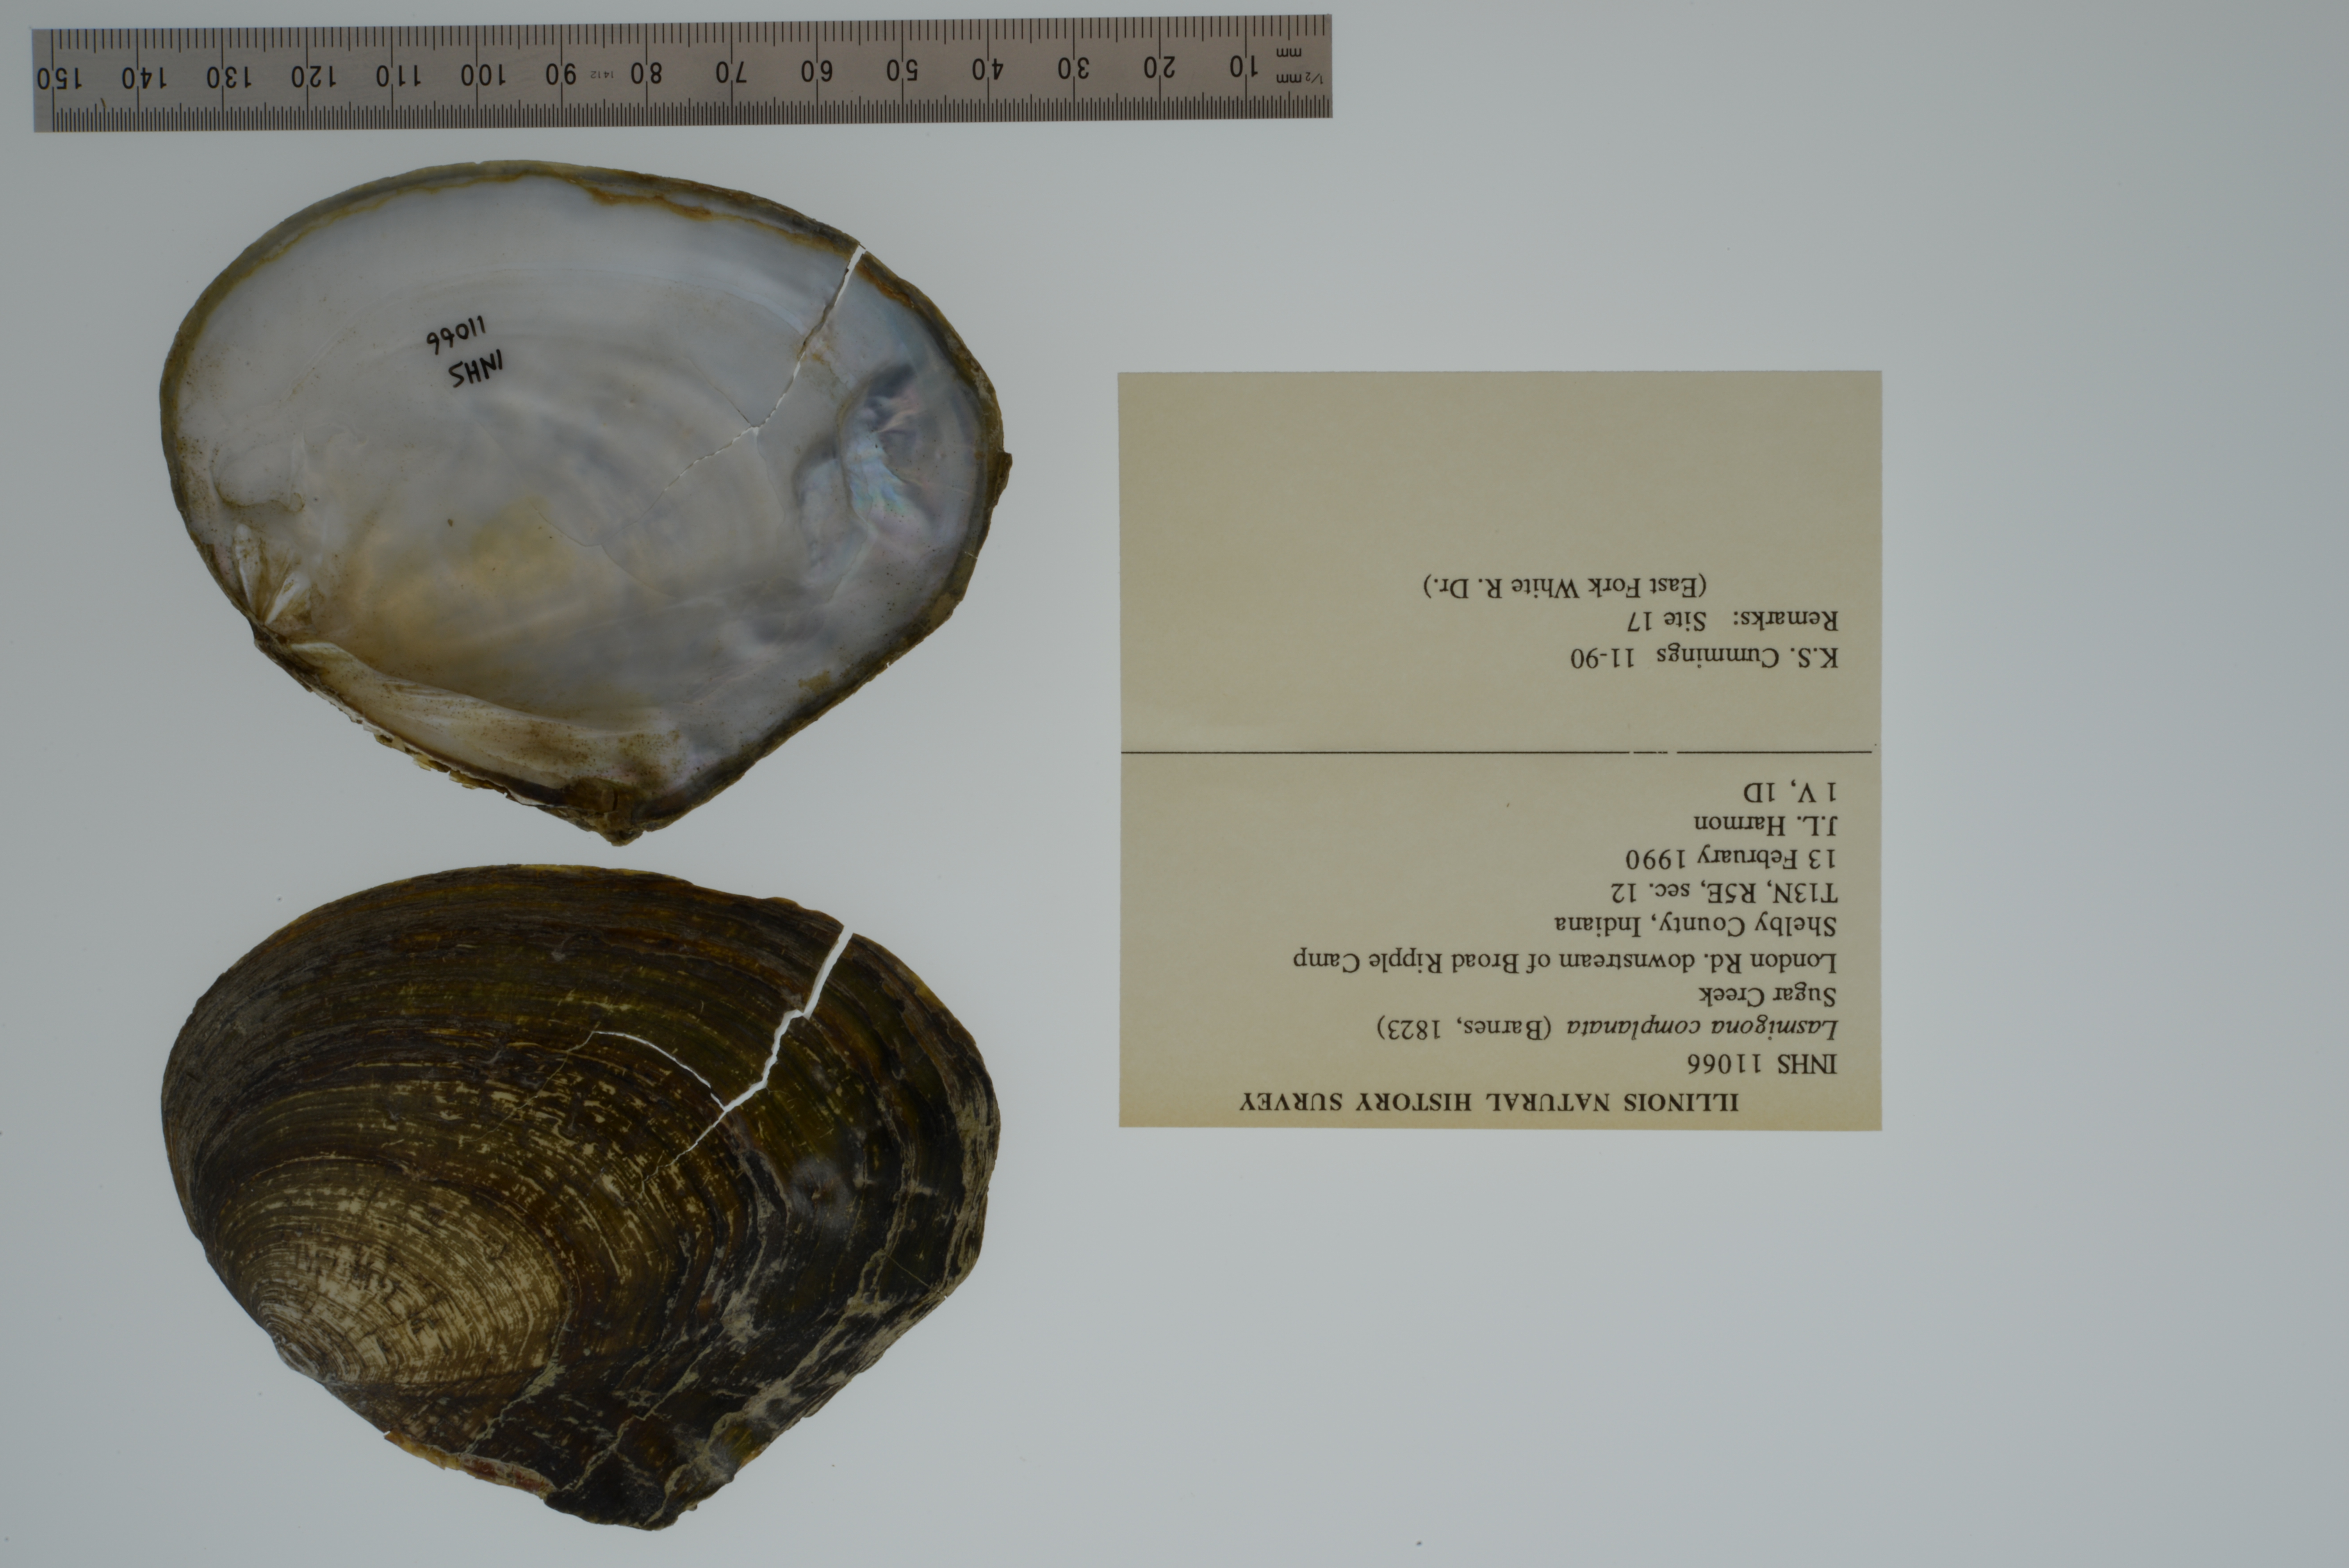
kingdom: Animalia
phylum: Mollusca
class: Bivalvia
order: Unionida
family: Unionidae
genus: Lasmigona
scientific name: Lasmigona complanata
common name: White heelsplitter
